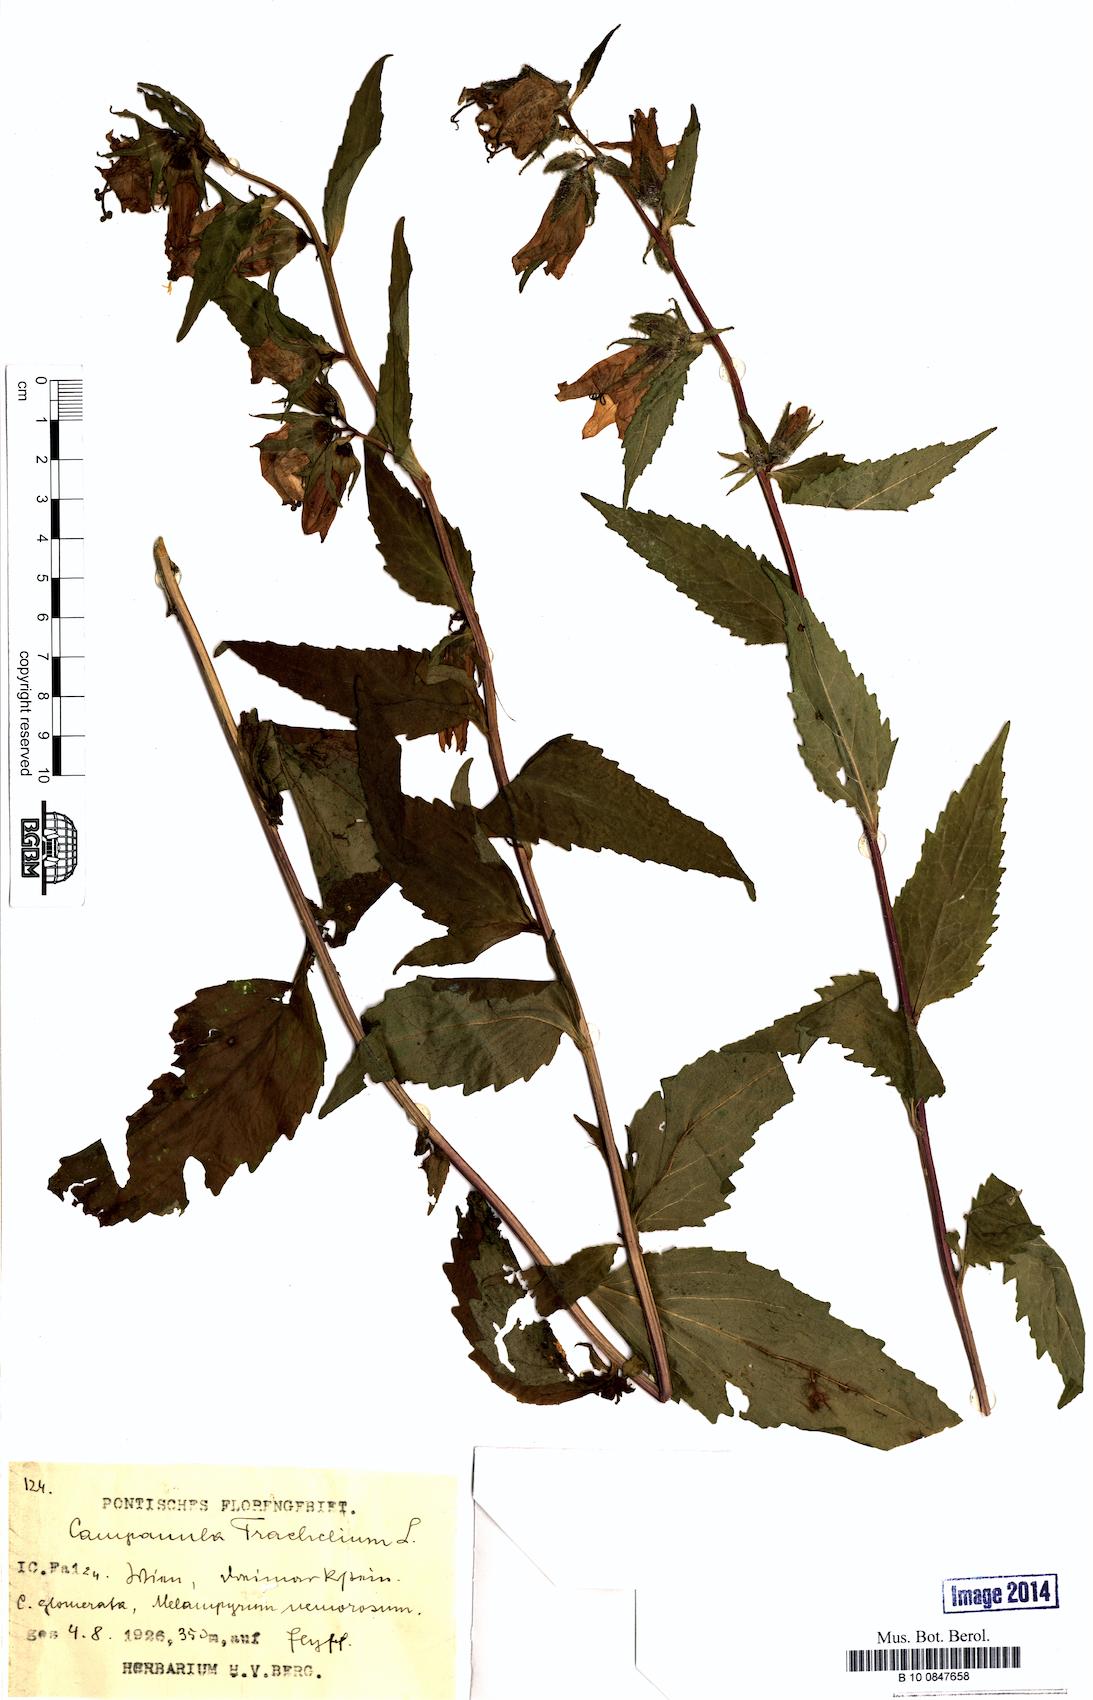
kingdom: Plantae
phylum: Tracheophyta
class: Magnoliopsida
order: Asterales
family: Campanulaceae
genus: Campanula
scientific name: Campanula trachelium
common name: Nettle-leaved bellflower
